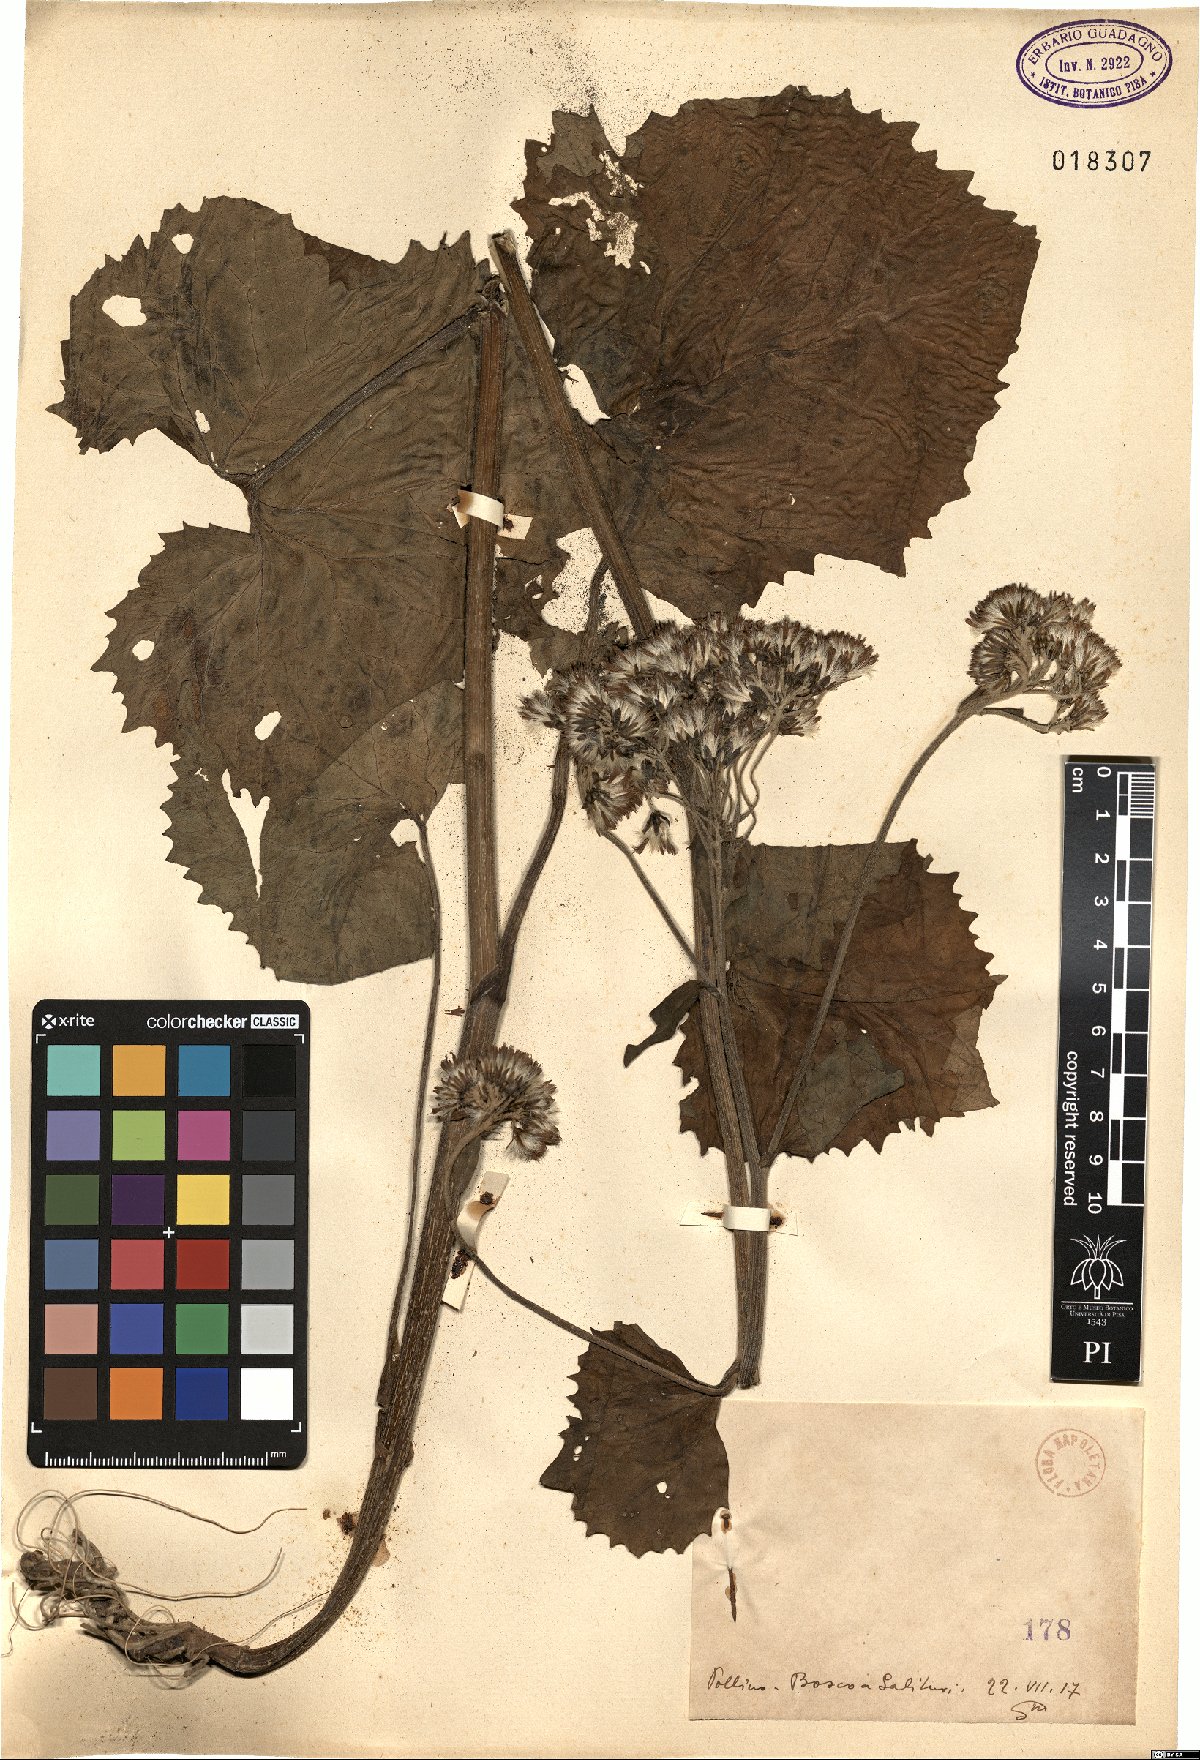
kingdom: Plantae
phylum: Tracheophyta
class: Magnoliopsida
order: Asterales
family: Asteraceae
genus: Adenostyles
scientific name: Adenostyles
